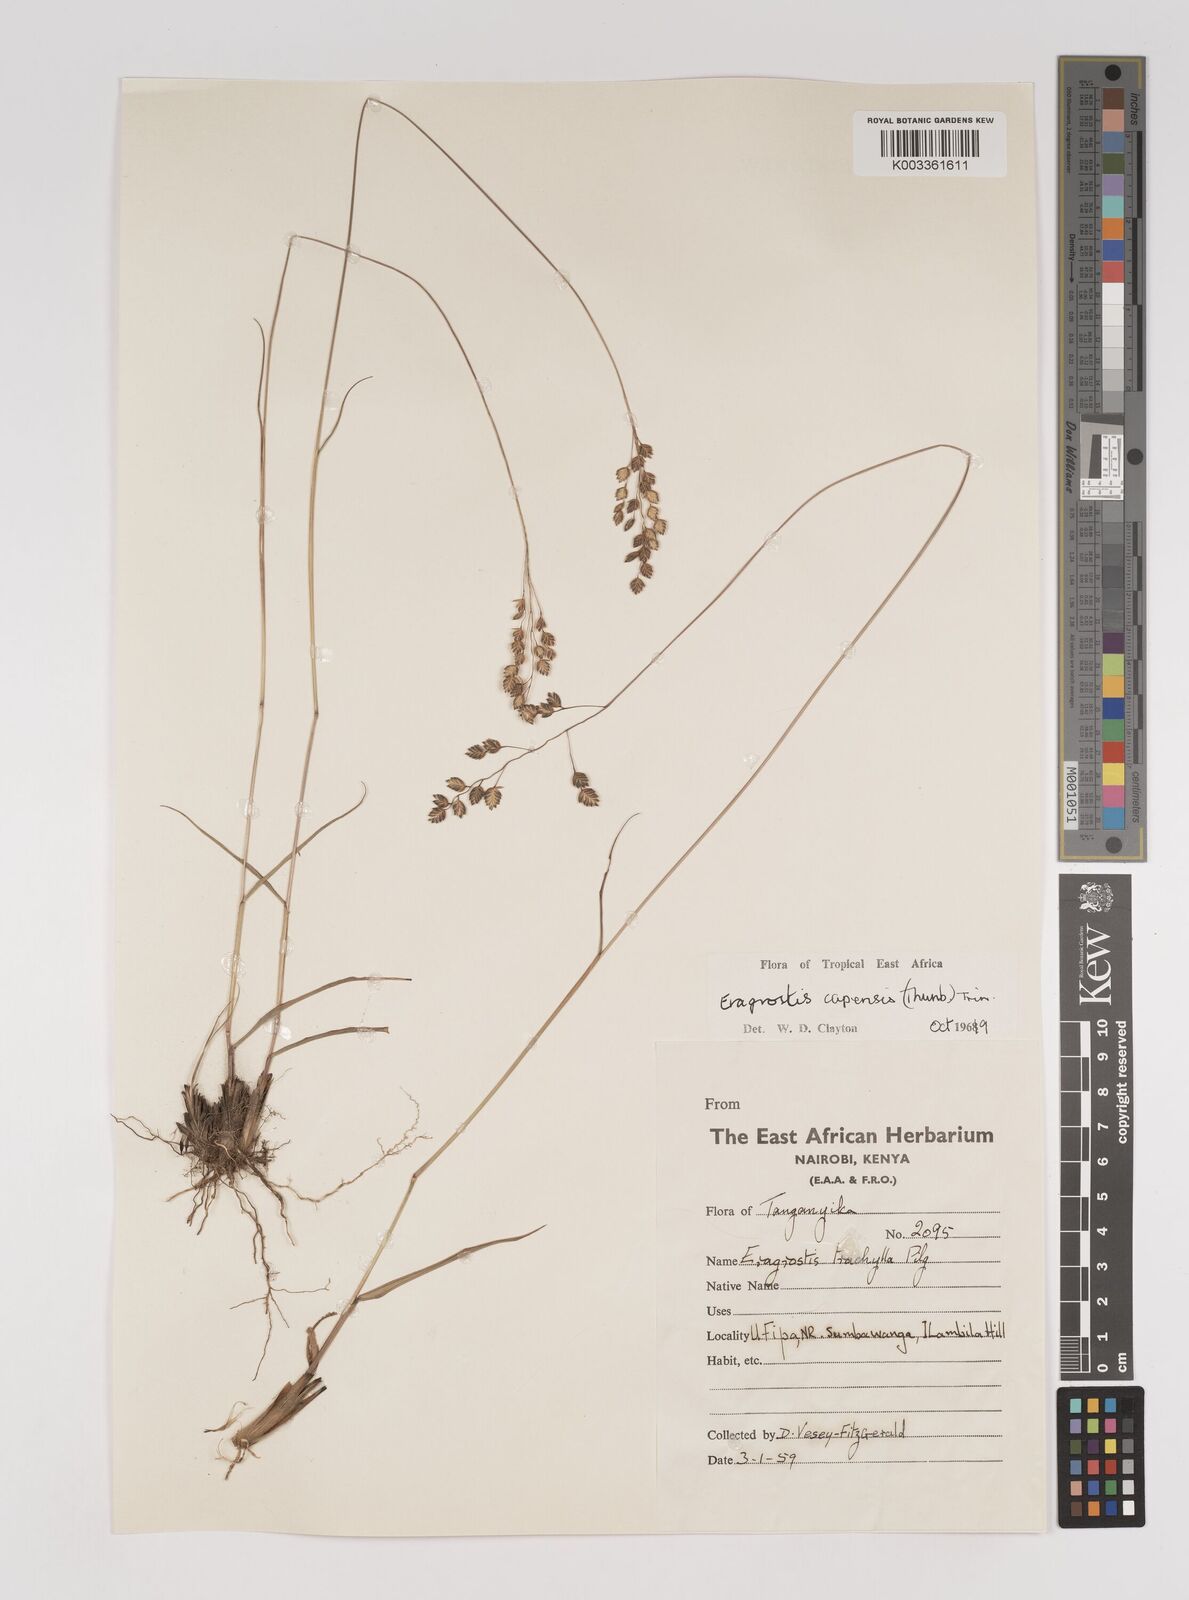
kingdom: Plantae
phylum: Tracheophyta
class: Liliopsida
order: Poales
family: Poaceae
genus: Eragrostis
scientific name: Eragrostis capensis
